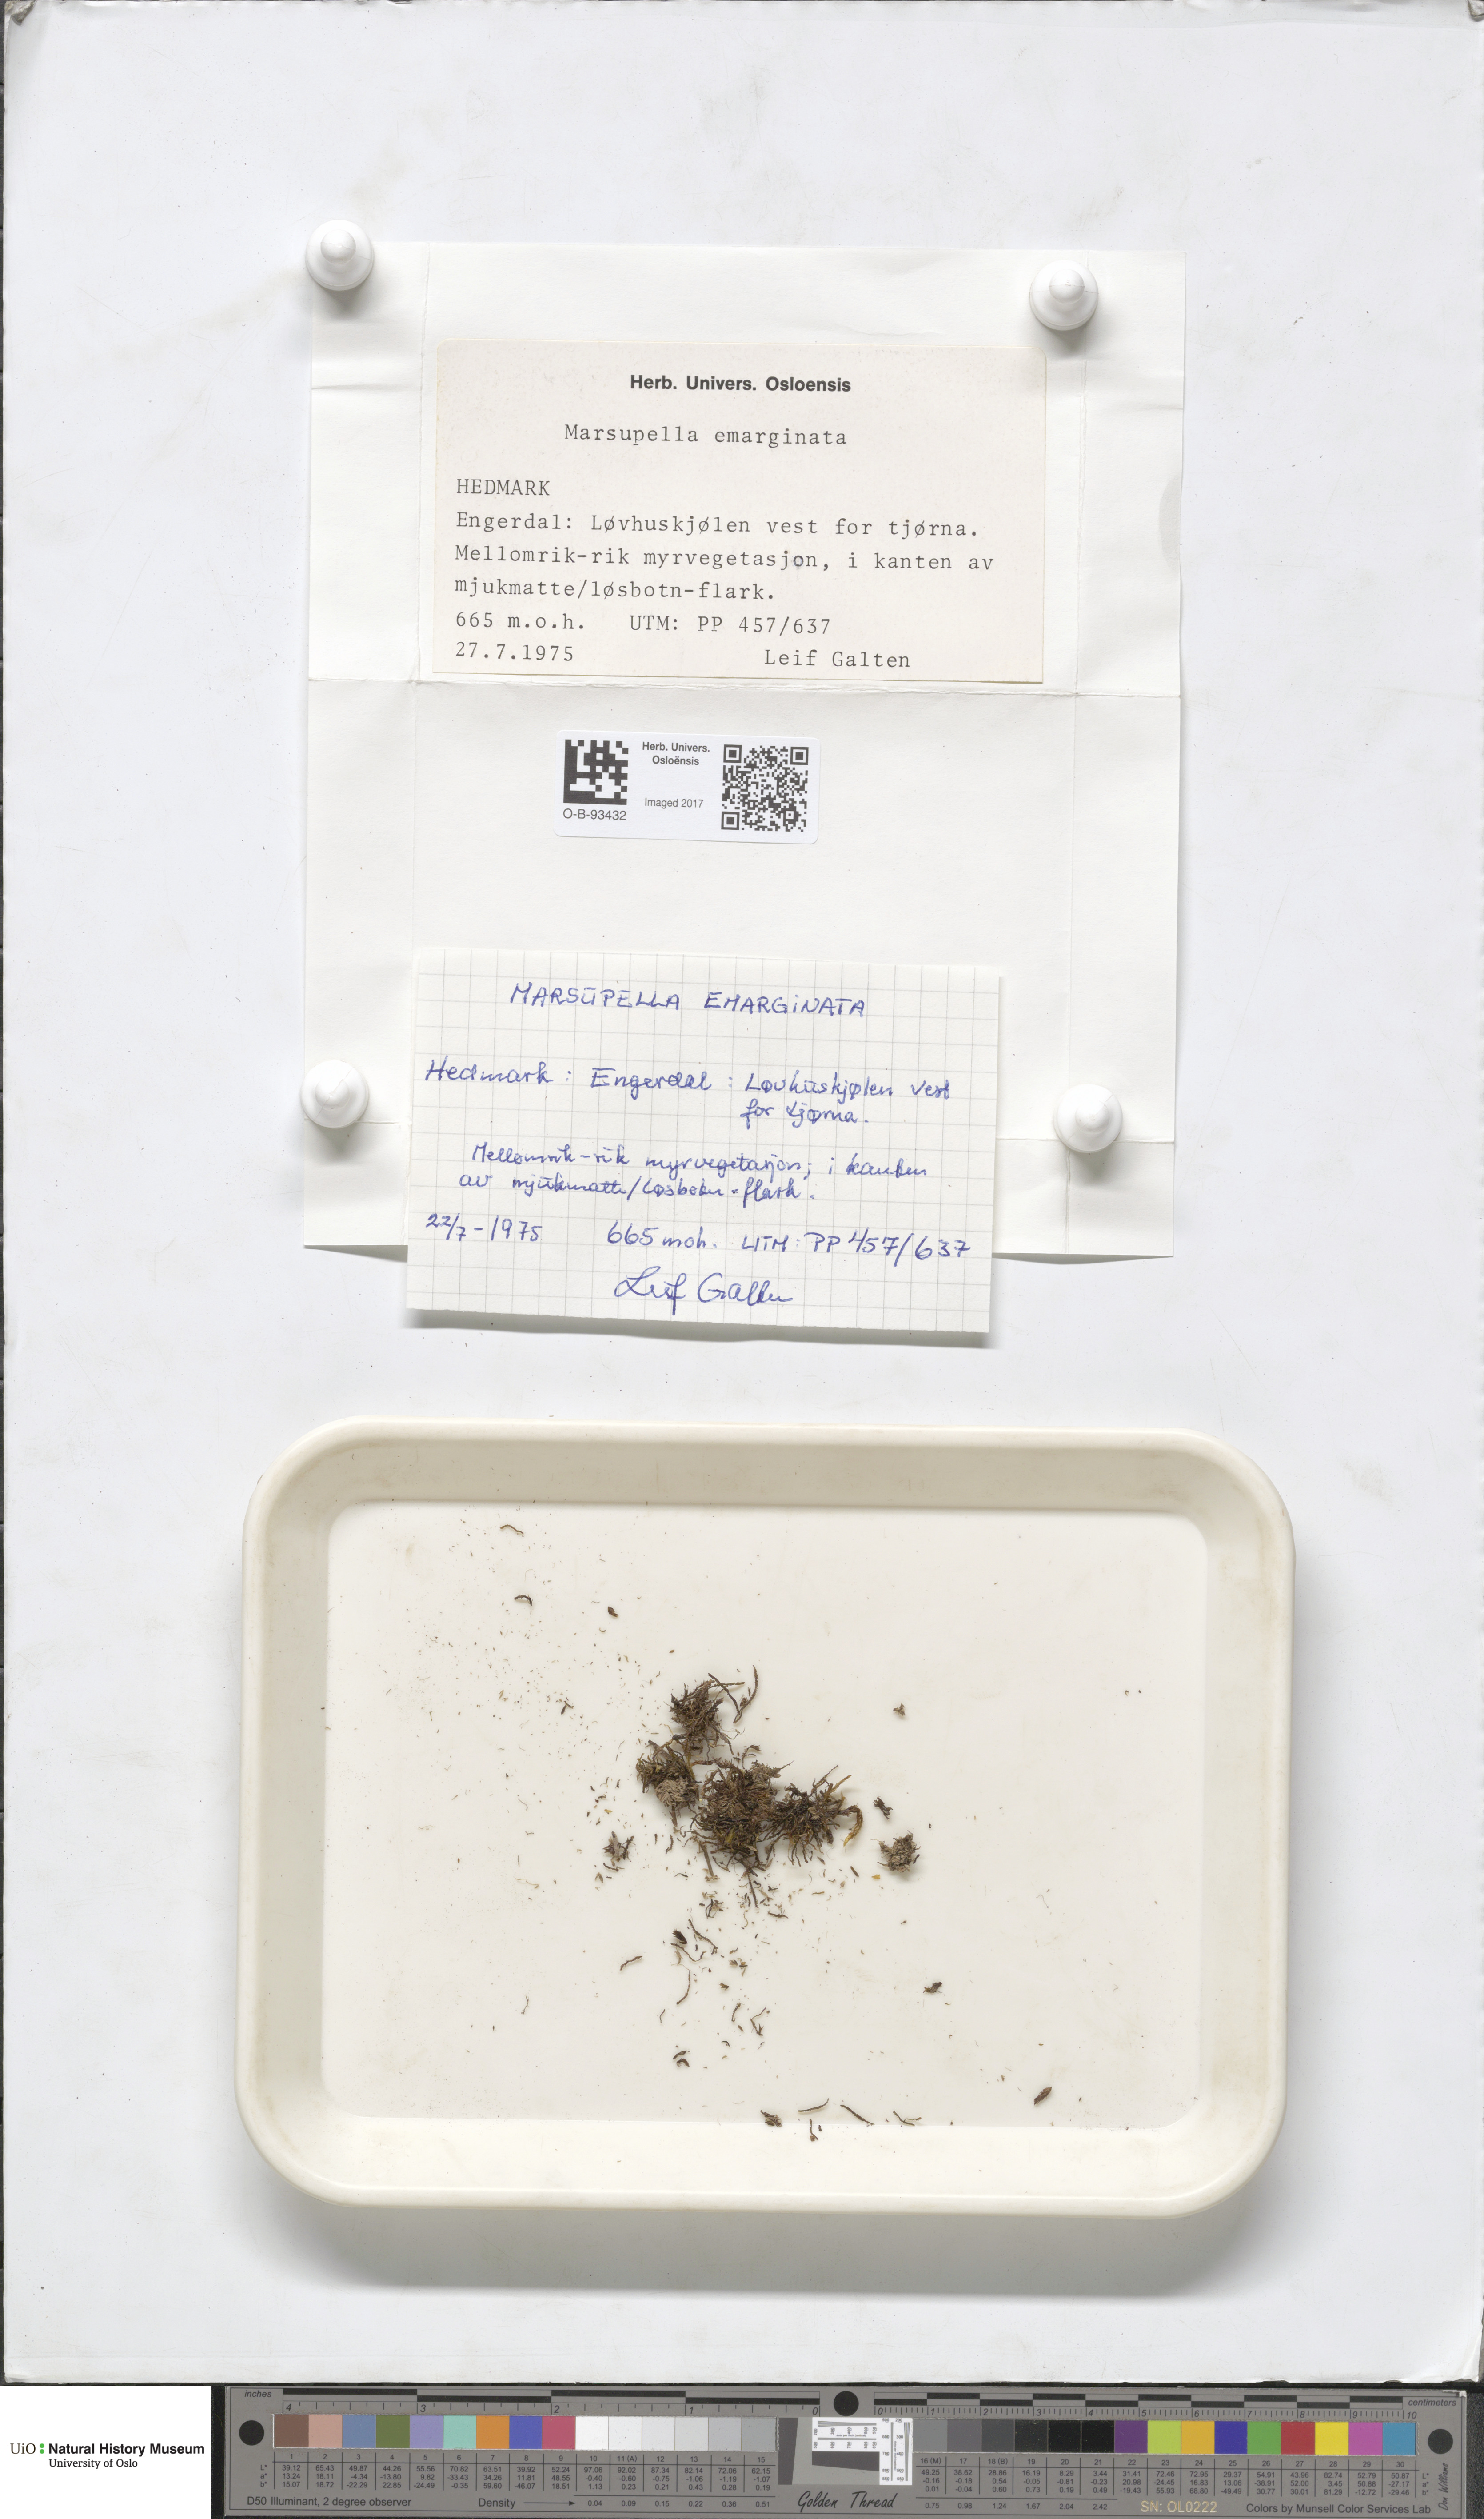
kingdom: Plantae
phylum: Marchantiophyta
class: Jungermanniopsida
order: Jungermanniales
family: Gymnomitriaceae
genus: Gymnomitrion
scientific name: Gymnomitrion brevissimum
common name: Snow rustwort
